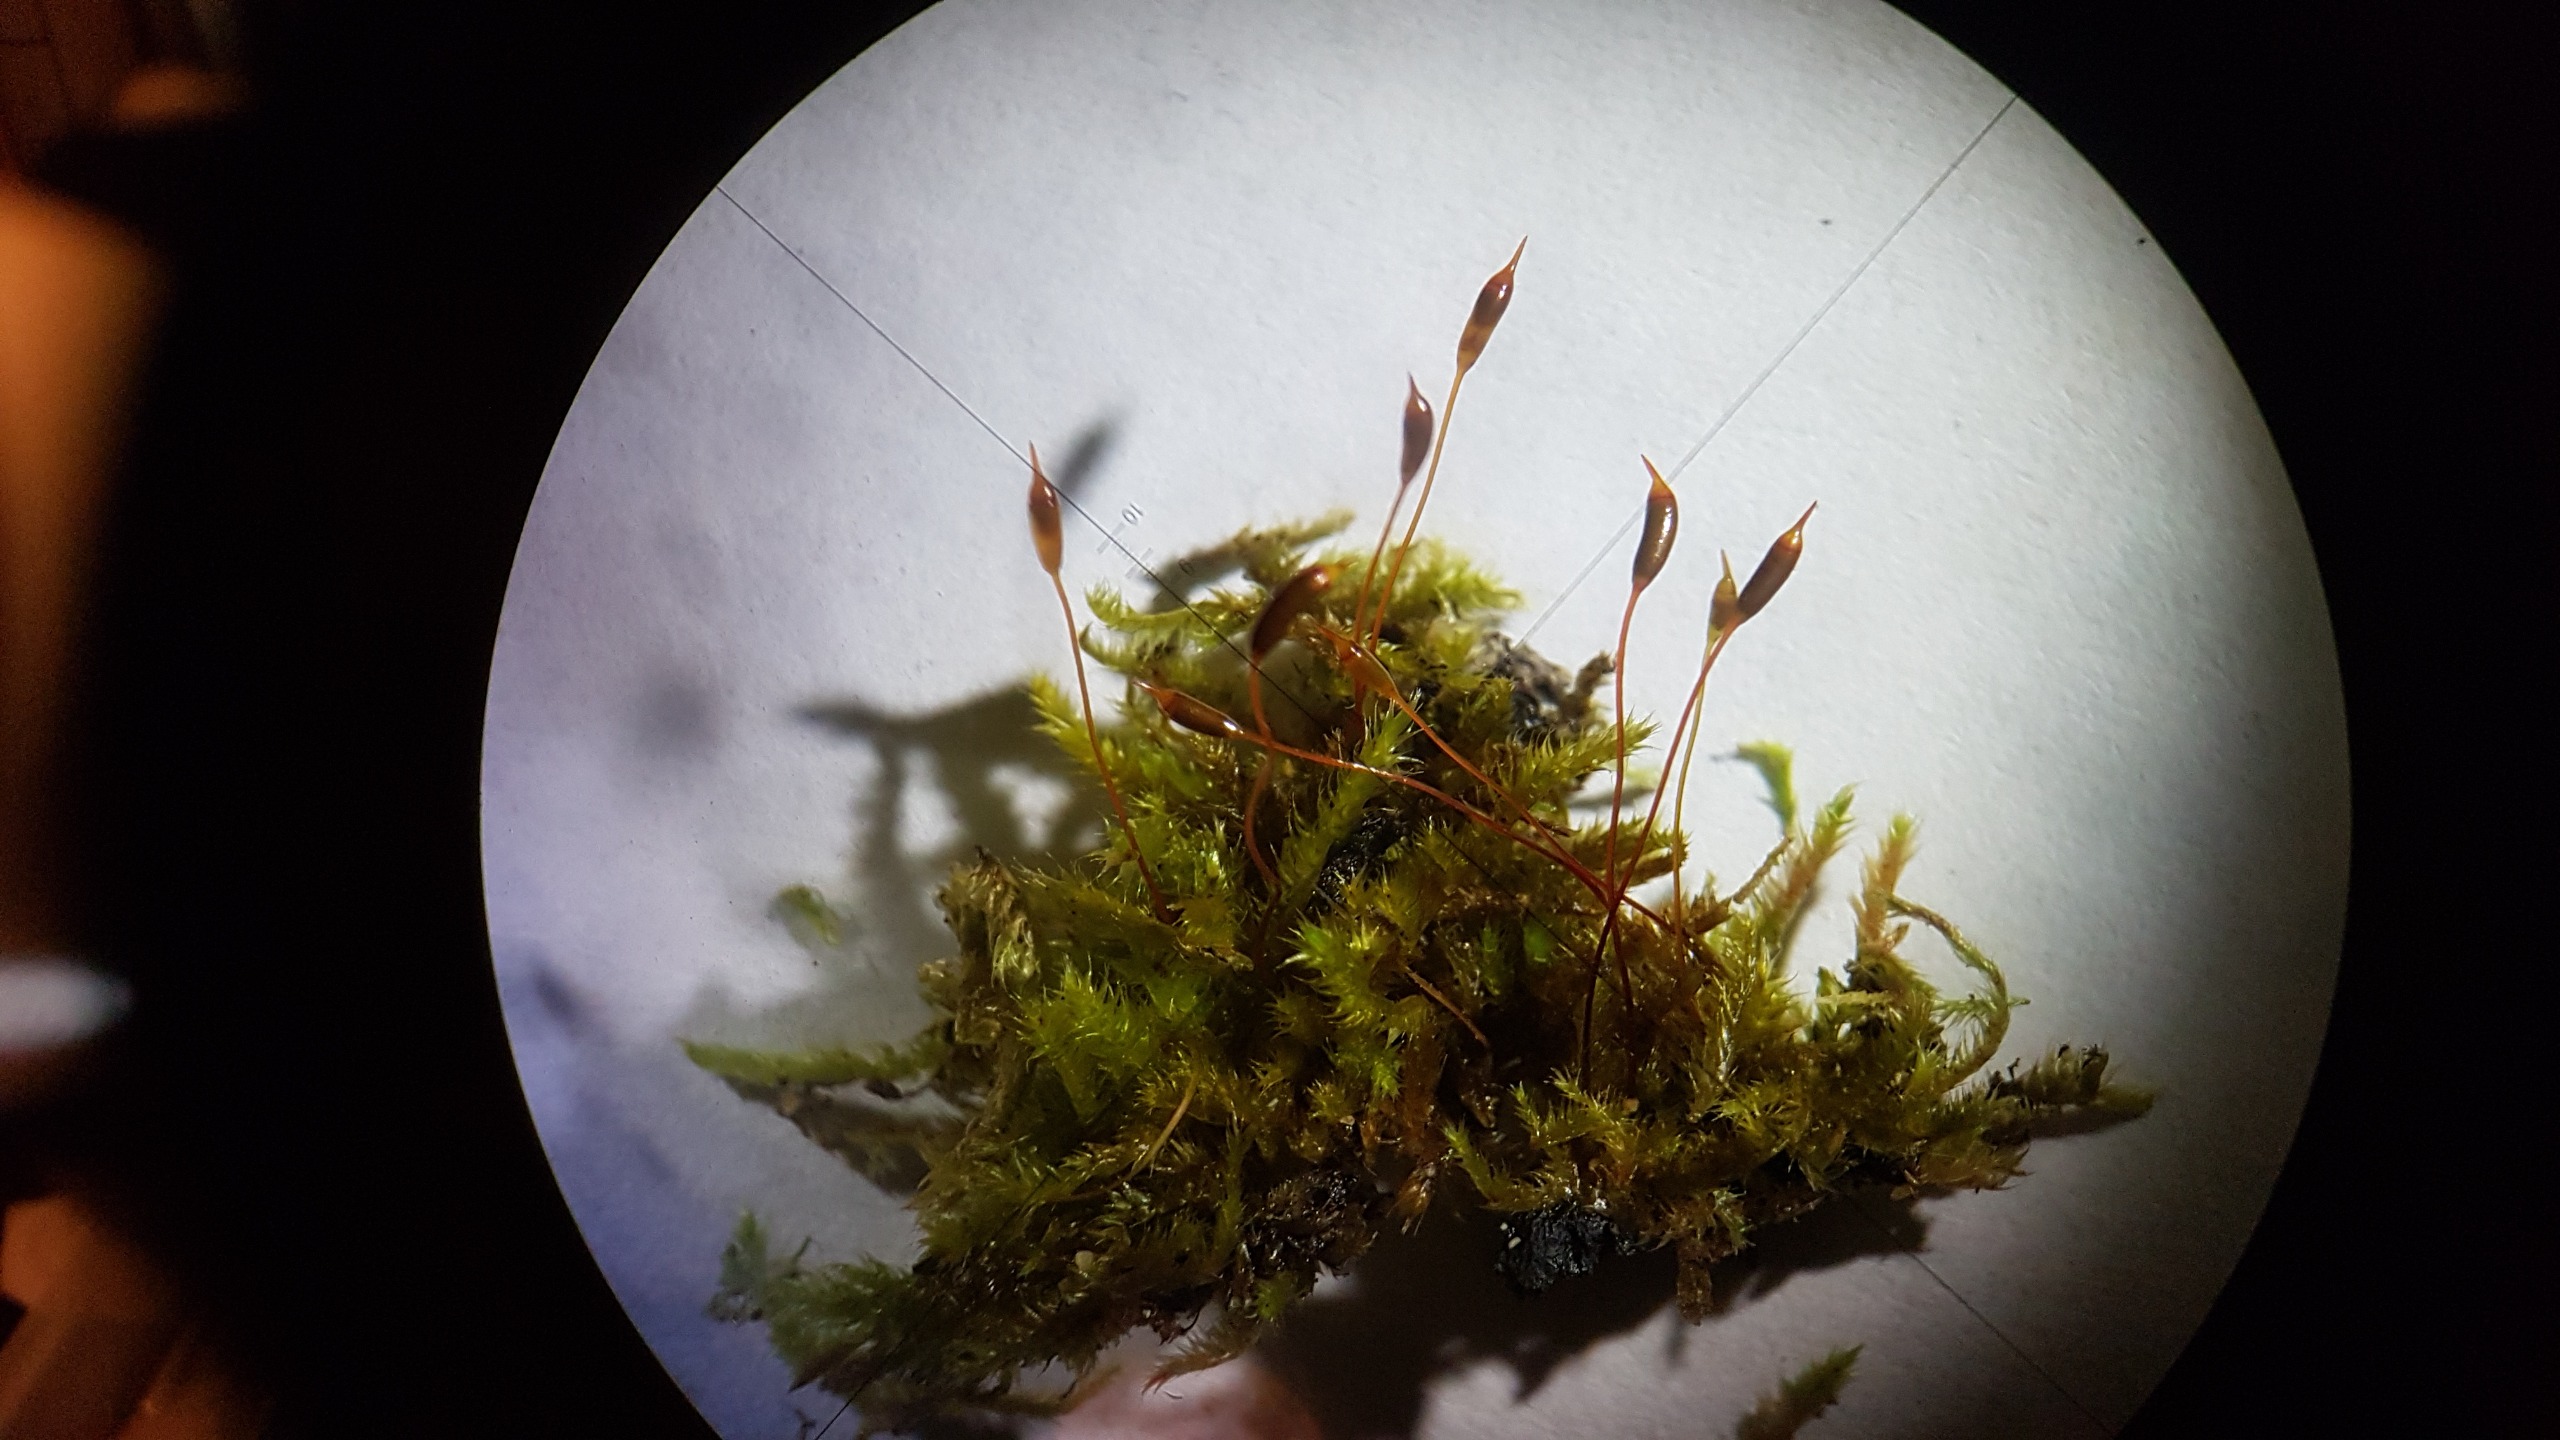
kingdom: Plantae
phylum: Bryophyta
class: Bryopsida
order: Hypnales
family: Hypnaceae
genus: Hypnum
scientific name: Hypnum resupinatum
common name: Ret cypresmos
